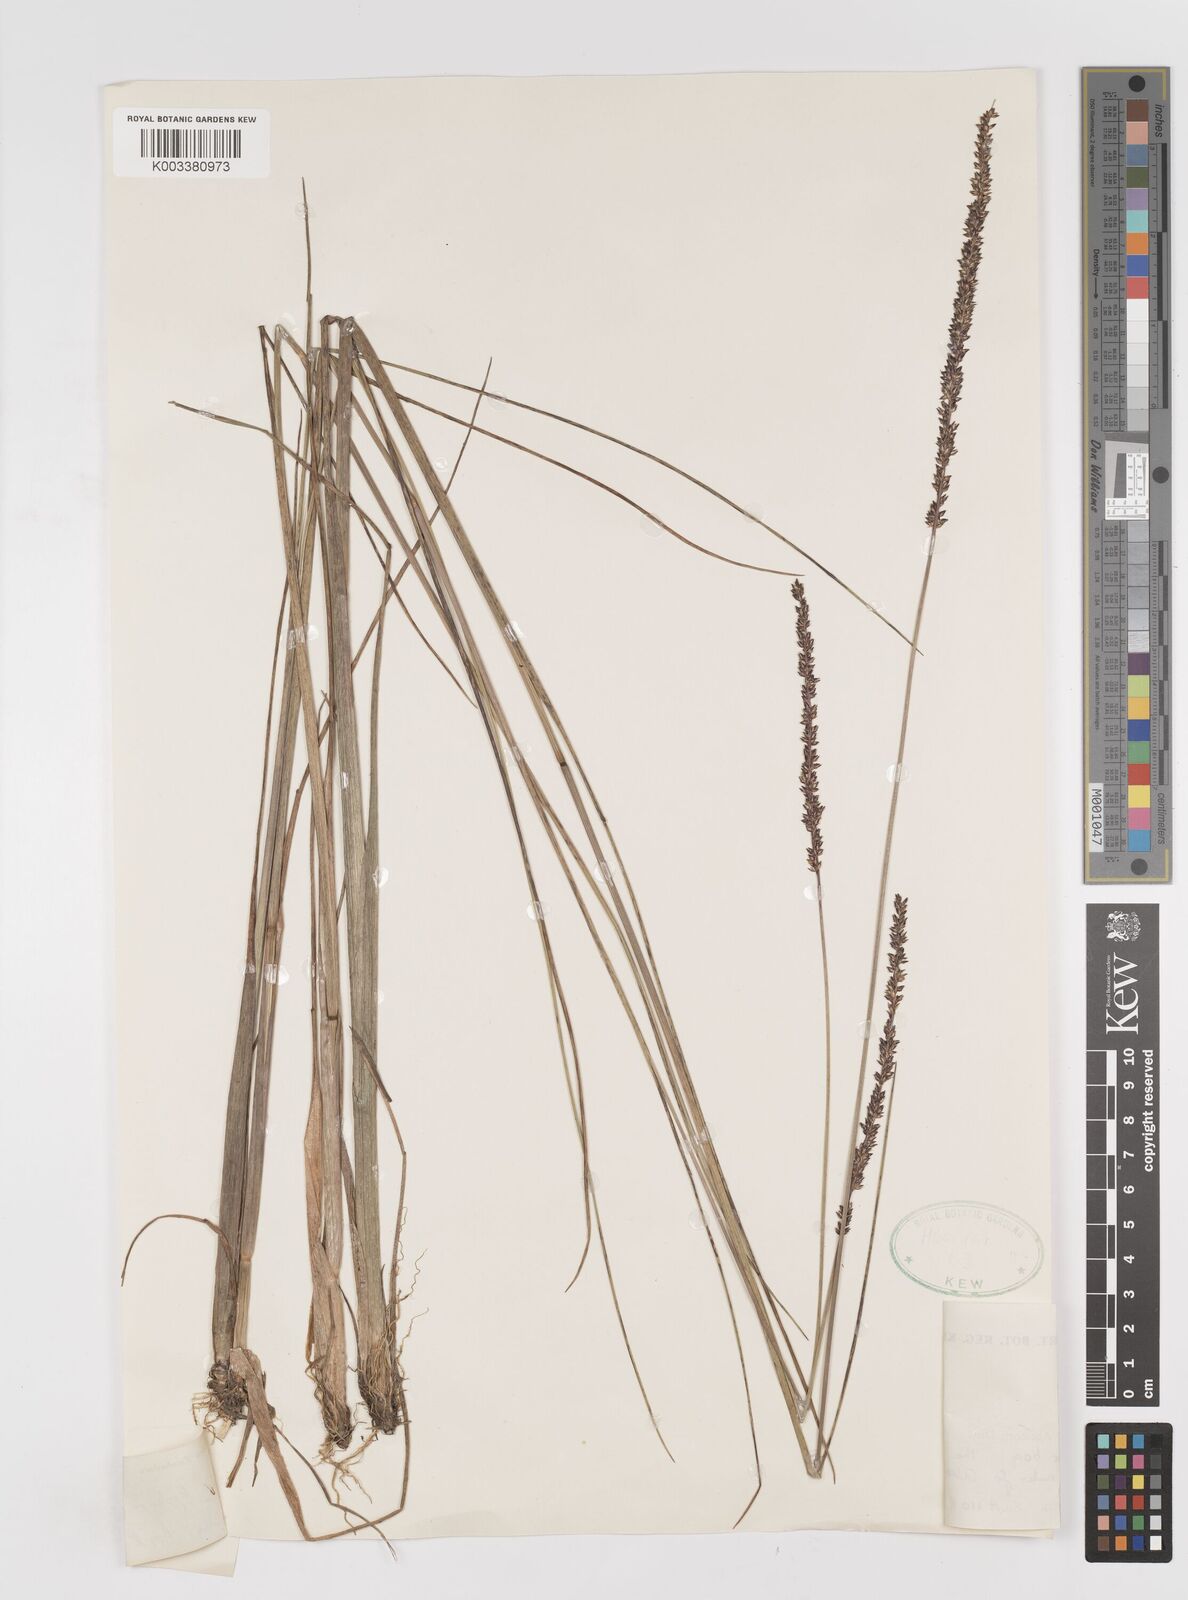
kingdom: Plantae
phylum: Tracheophyta
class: Liliopsida
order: Poales
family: Poaceae
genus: Sacciolepis
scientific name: Sacciolepis typhura
